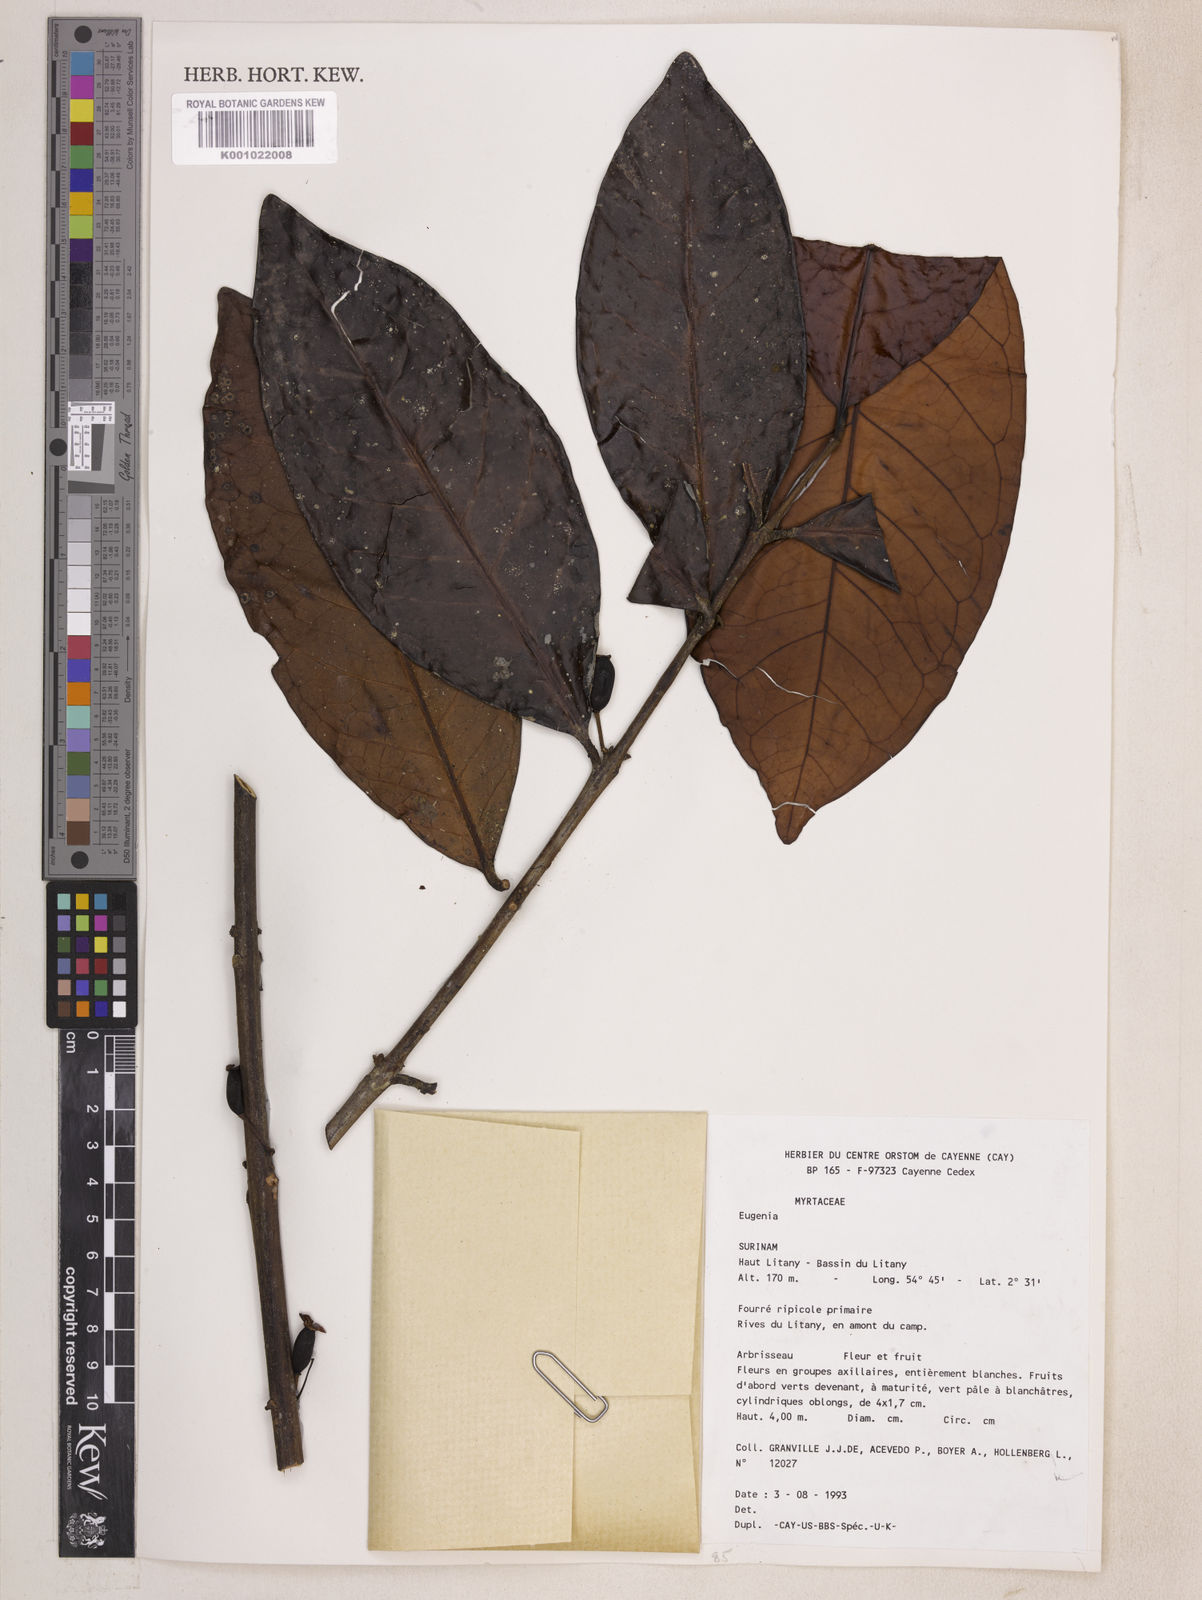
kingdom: Plantae
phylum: Tracheophyta
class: Magnoliopsida
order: Myrtales
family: Myrtaceae
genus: Eugenia
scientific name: Eugenia latifolia
